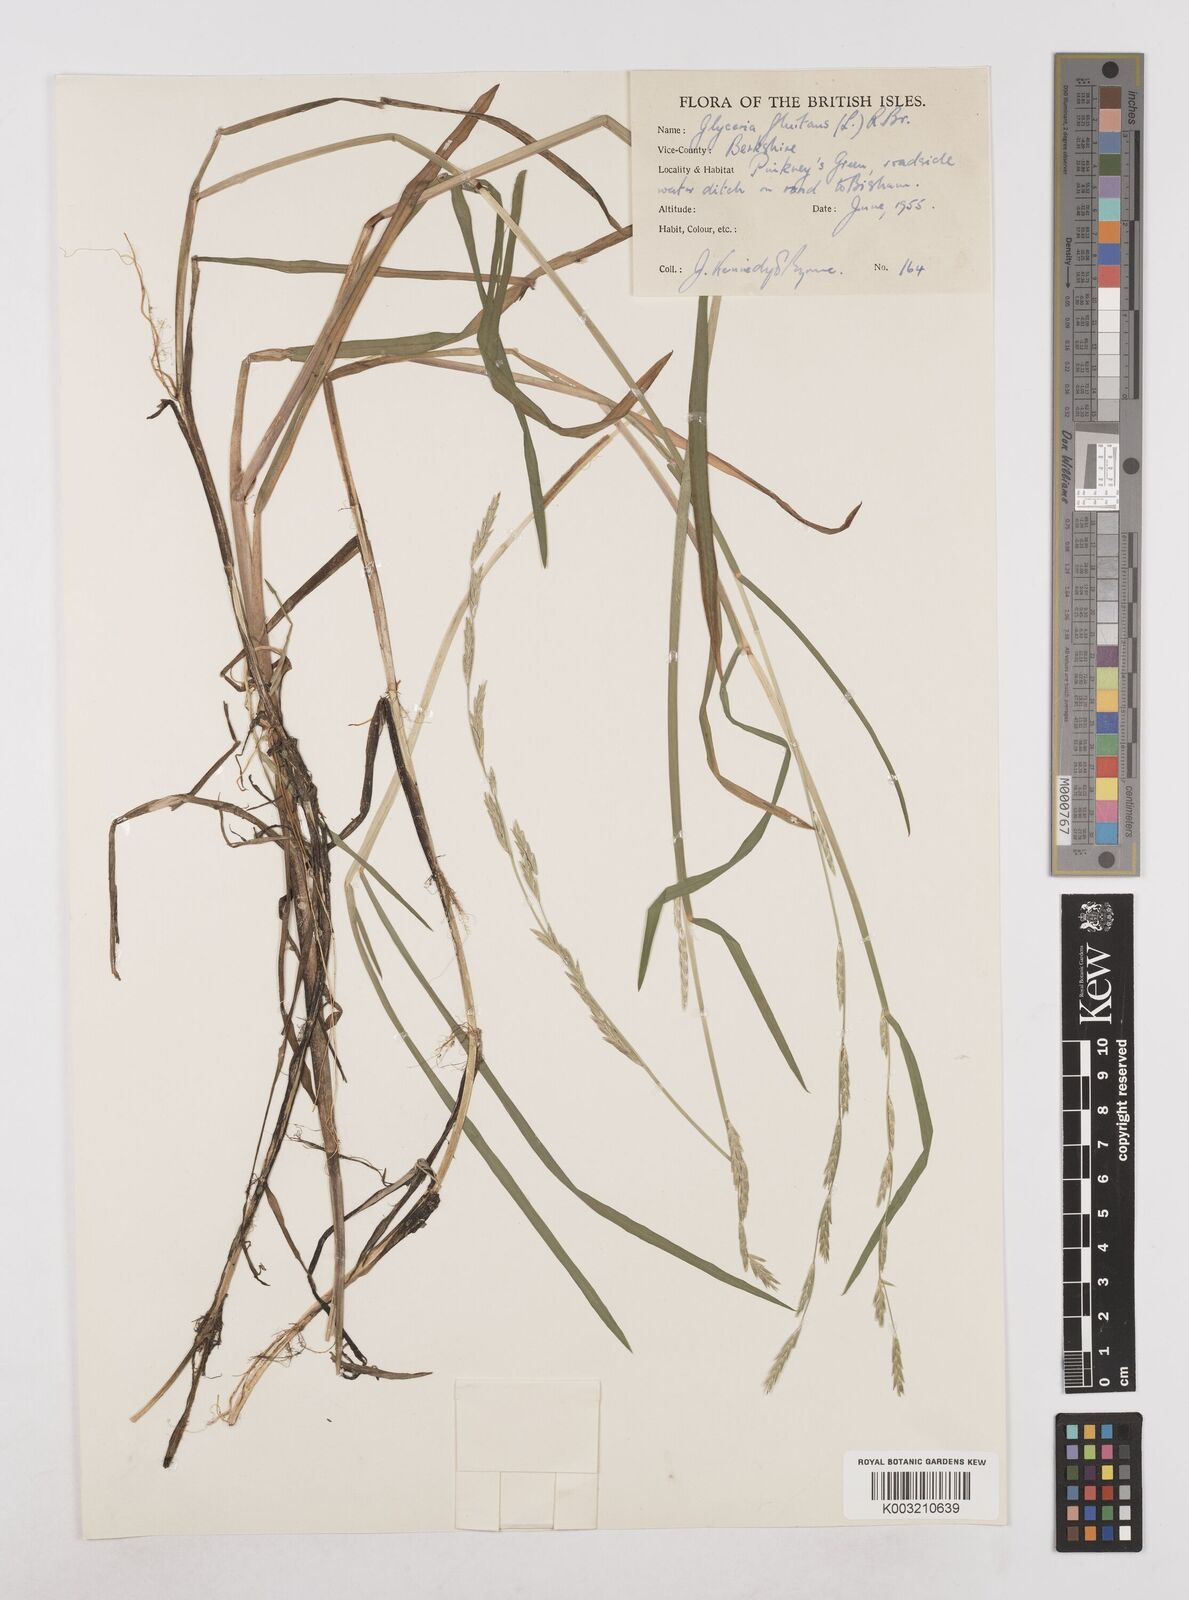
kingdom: Plantae
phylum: Tracheophyta
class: Liliopsida
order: Poales
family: Poaceae
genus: Glyceria
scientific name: Glyceria fluitans
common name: Floating sweet-grass
